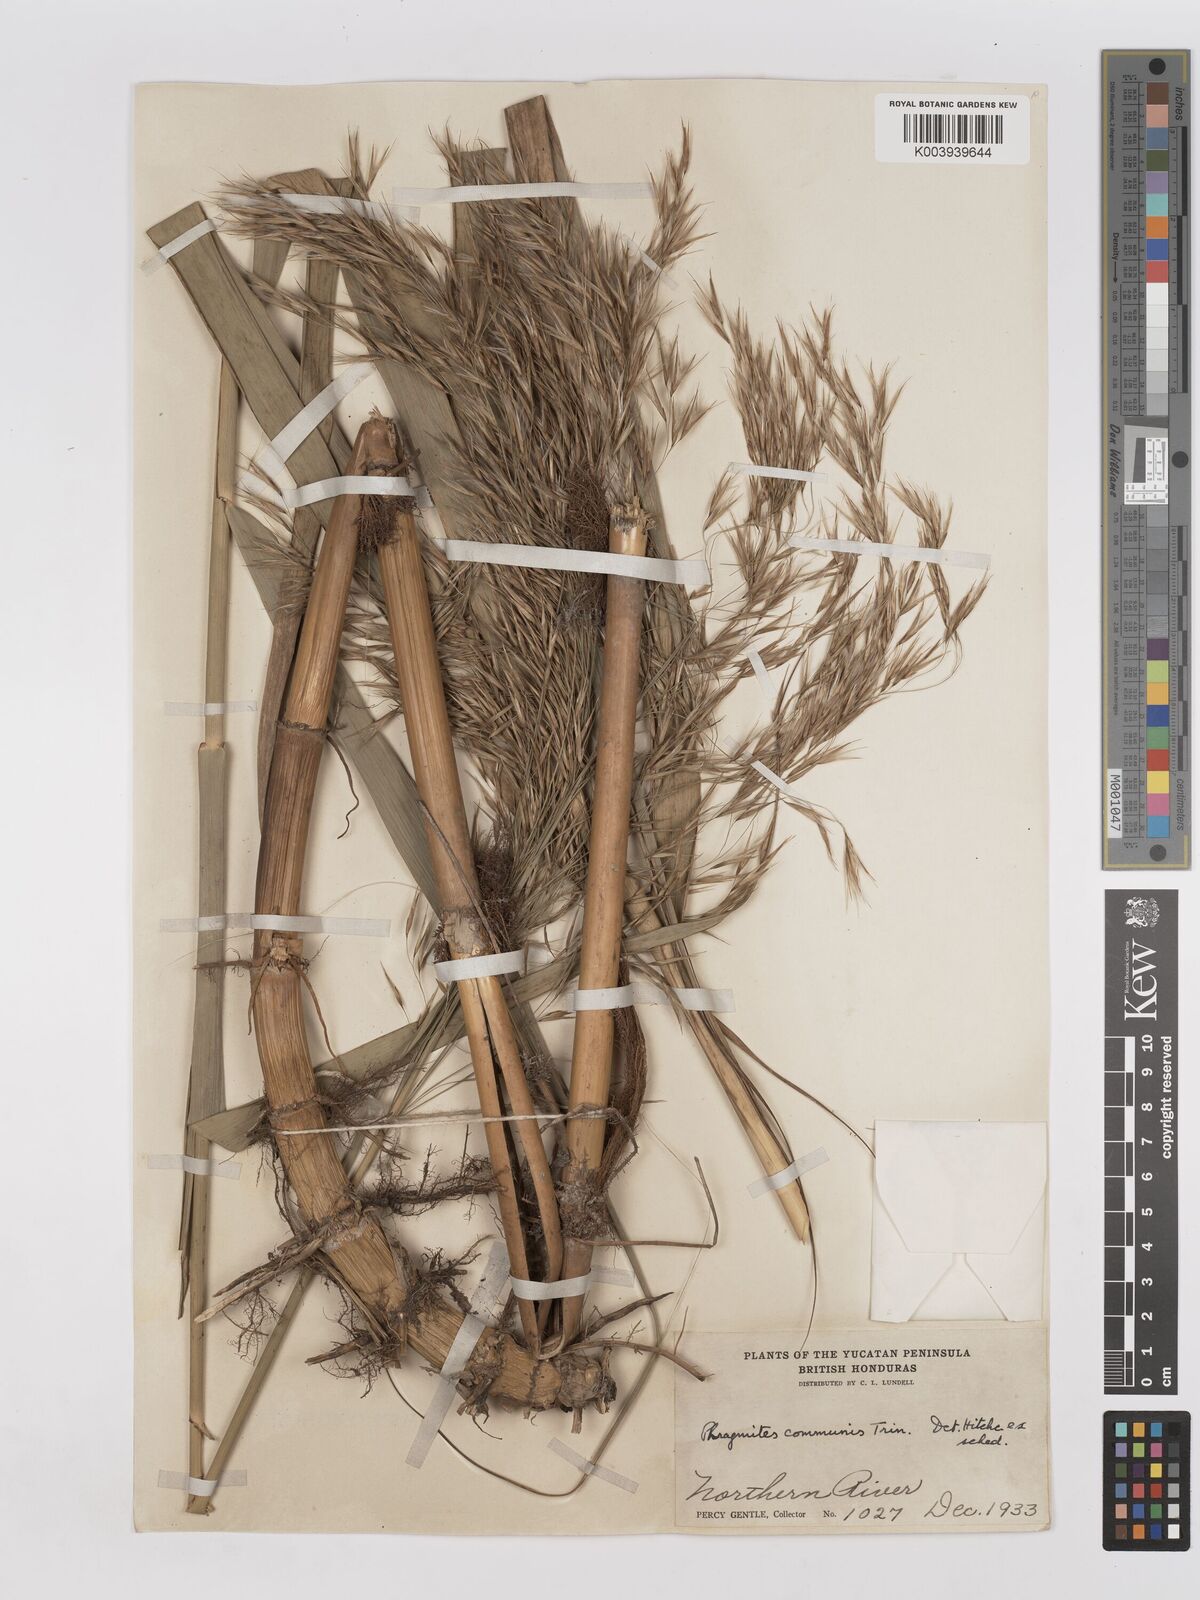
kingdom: Plantae
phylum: Tracheophyta
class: Liliopsida
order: Poales
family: Poaceae
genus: Phragmites
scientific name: Phragmites australis
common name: Common reed
